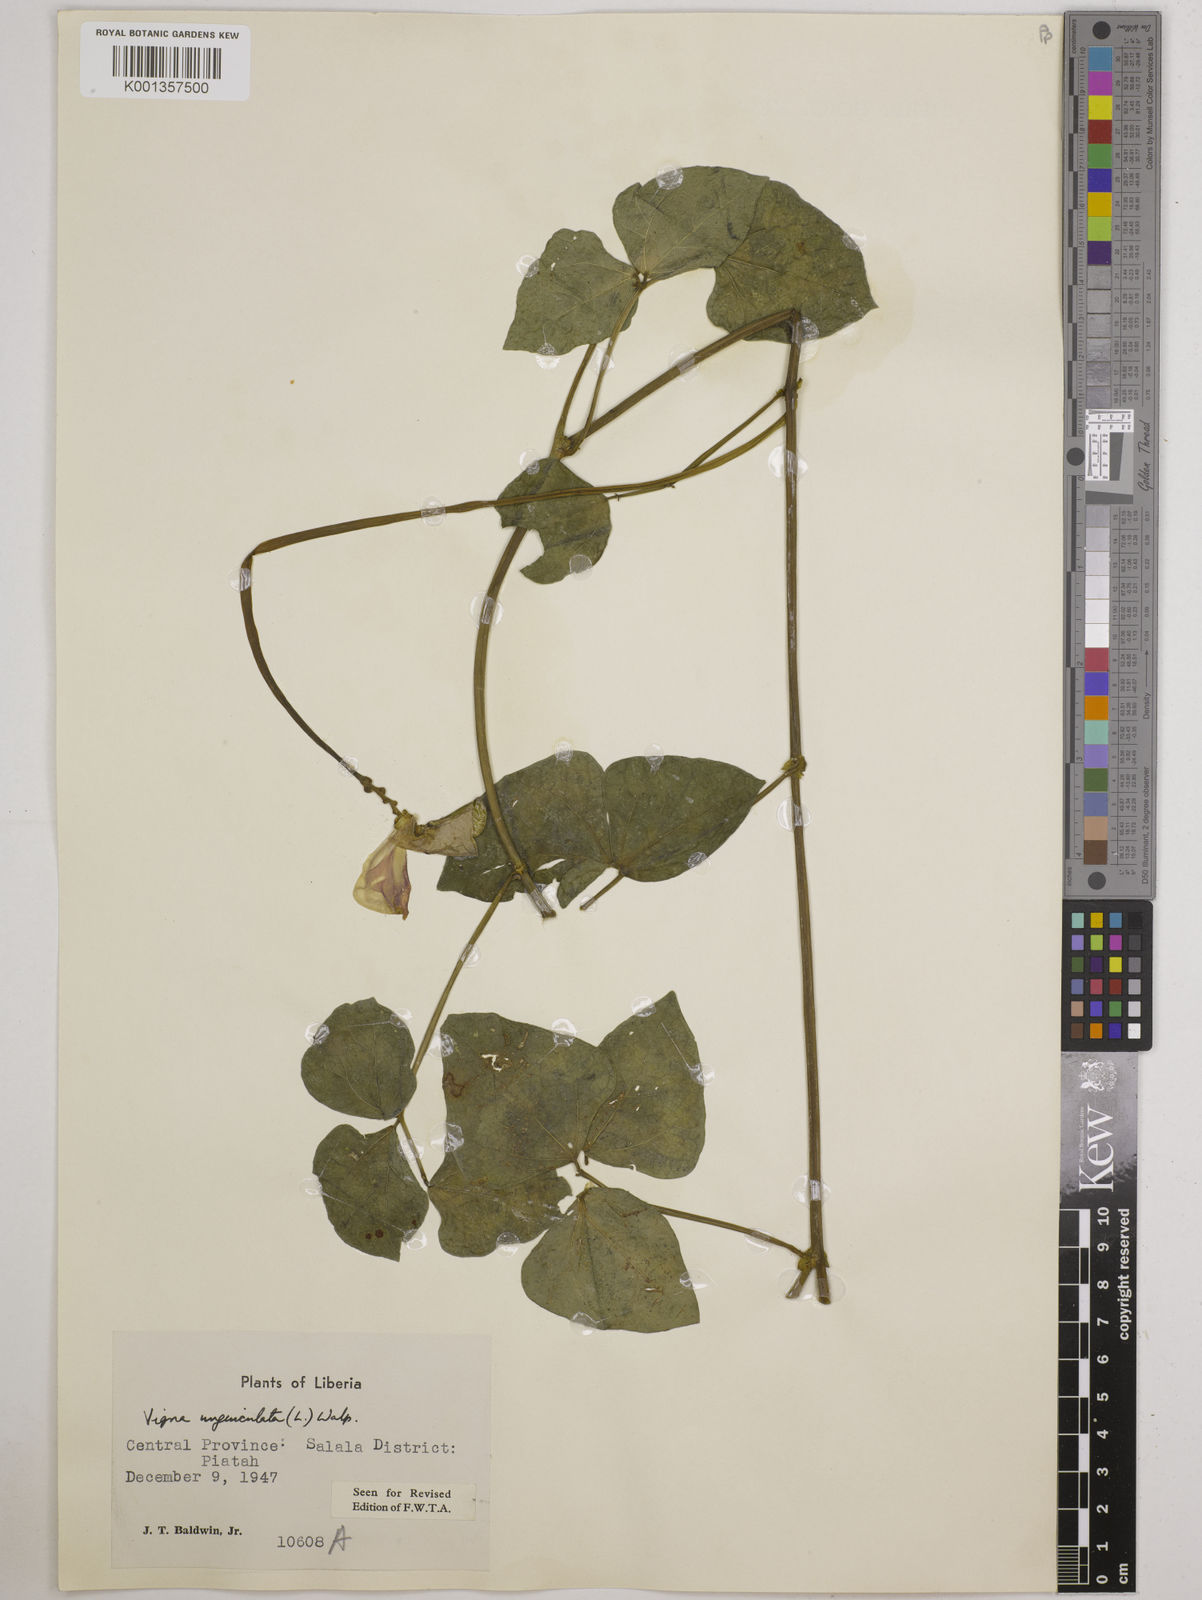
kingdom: Plantae
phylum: Tracheophyta
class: Magnoliopsida
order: Fabales
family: Fabaceae
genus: Vigna
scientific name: Vigna
